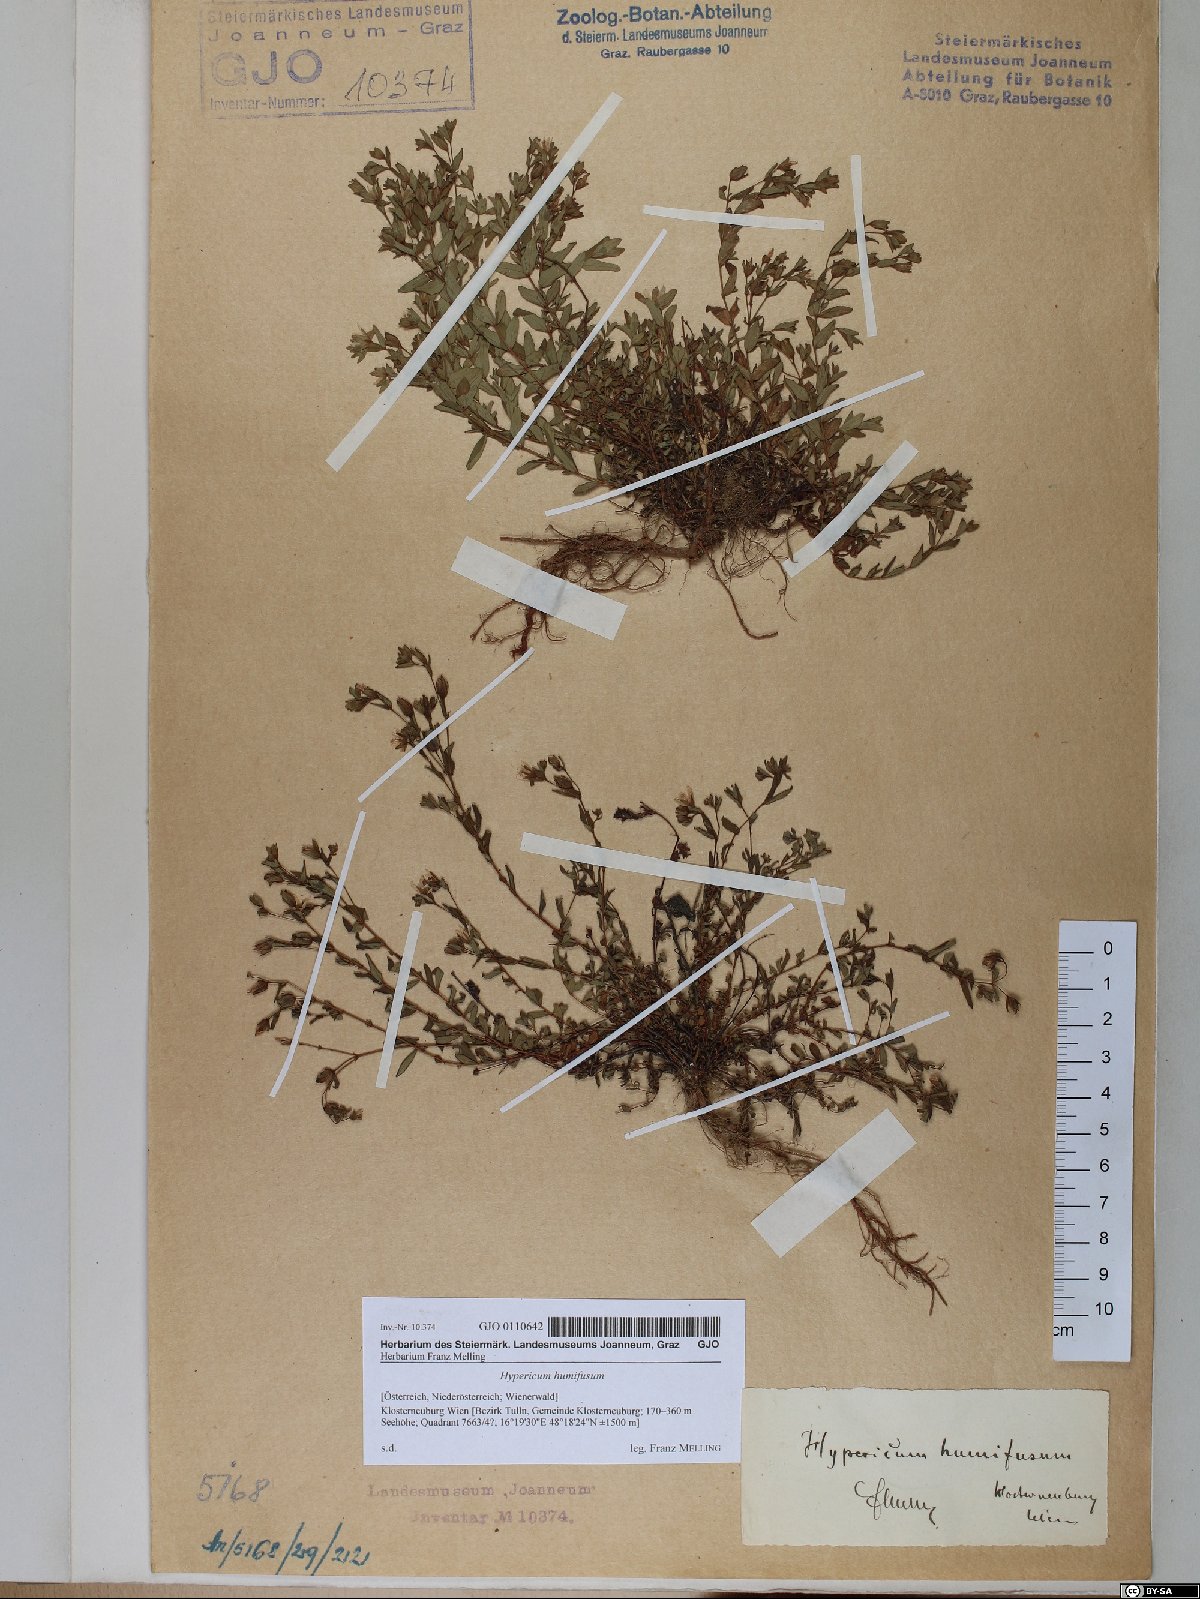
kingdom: Plantae
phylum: Tracheophyta
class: Magnoliopsida
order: Malpighiales
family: Hypericaceae
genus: Hypericum
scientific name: Hypericum humifusum
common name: Trailing st. john's-wort
